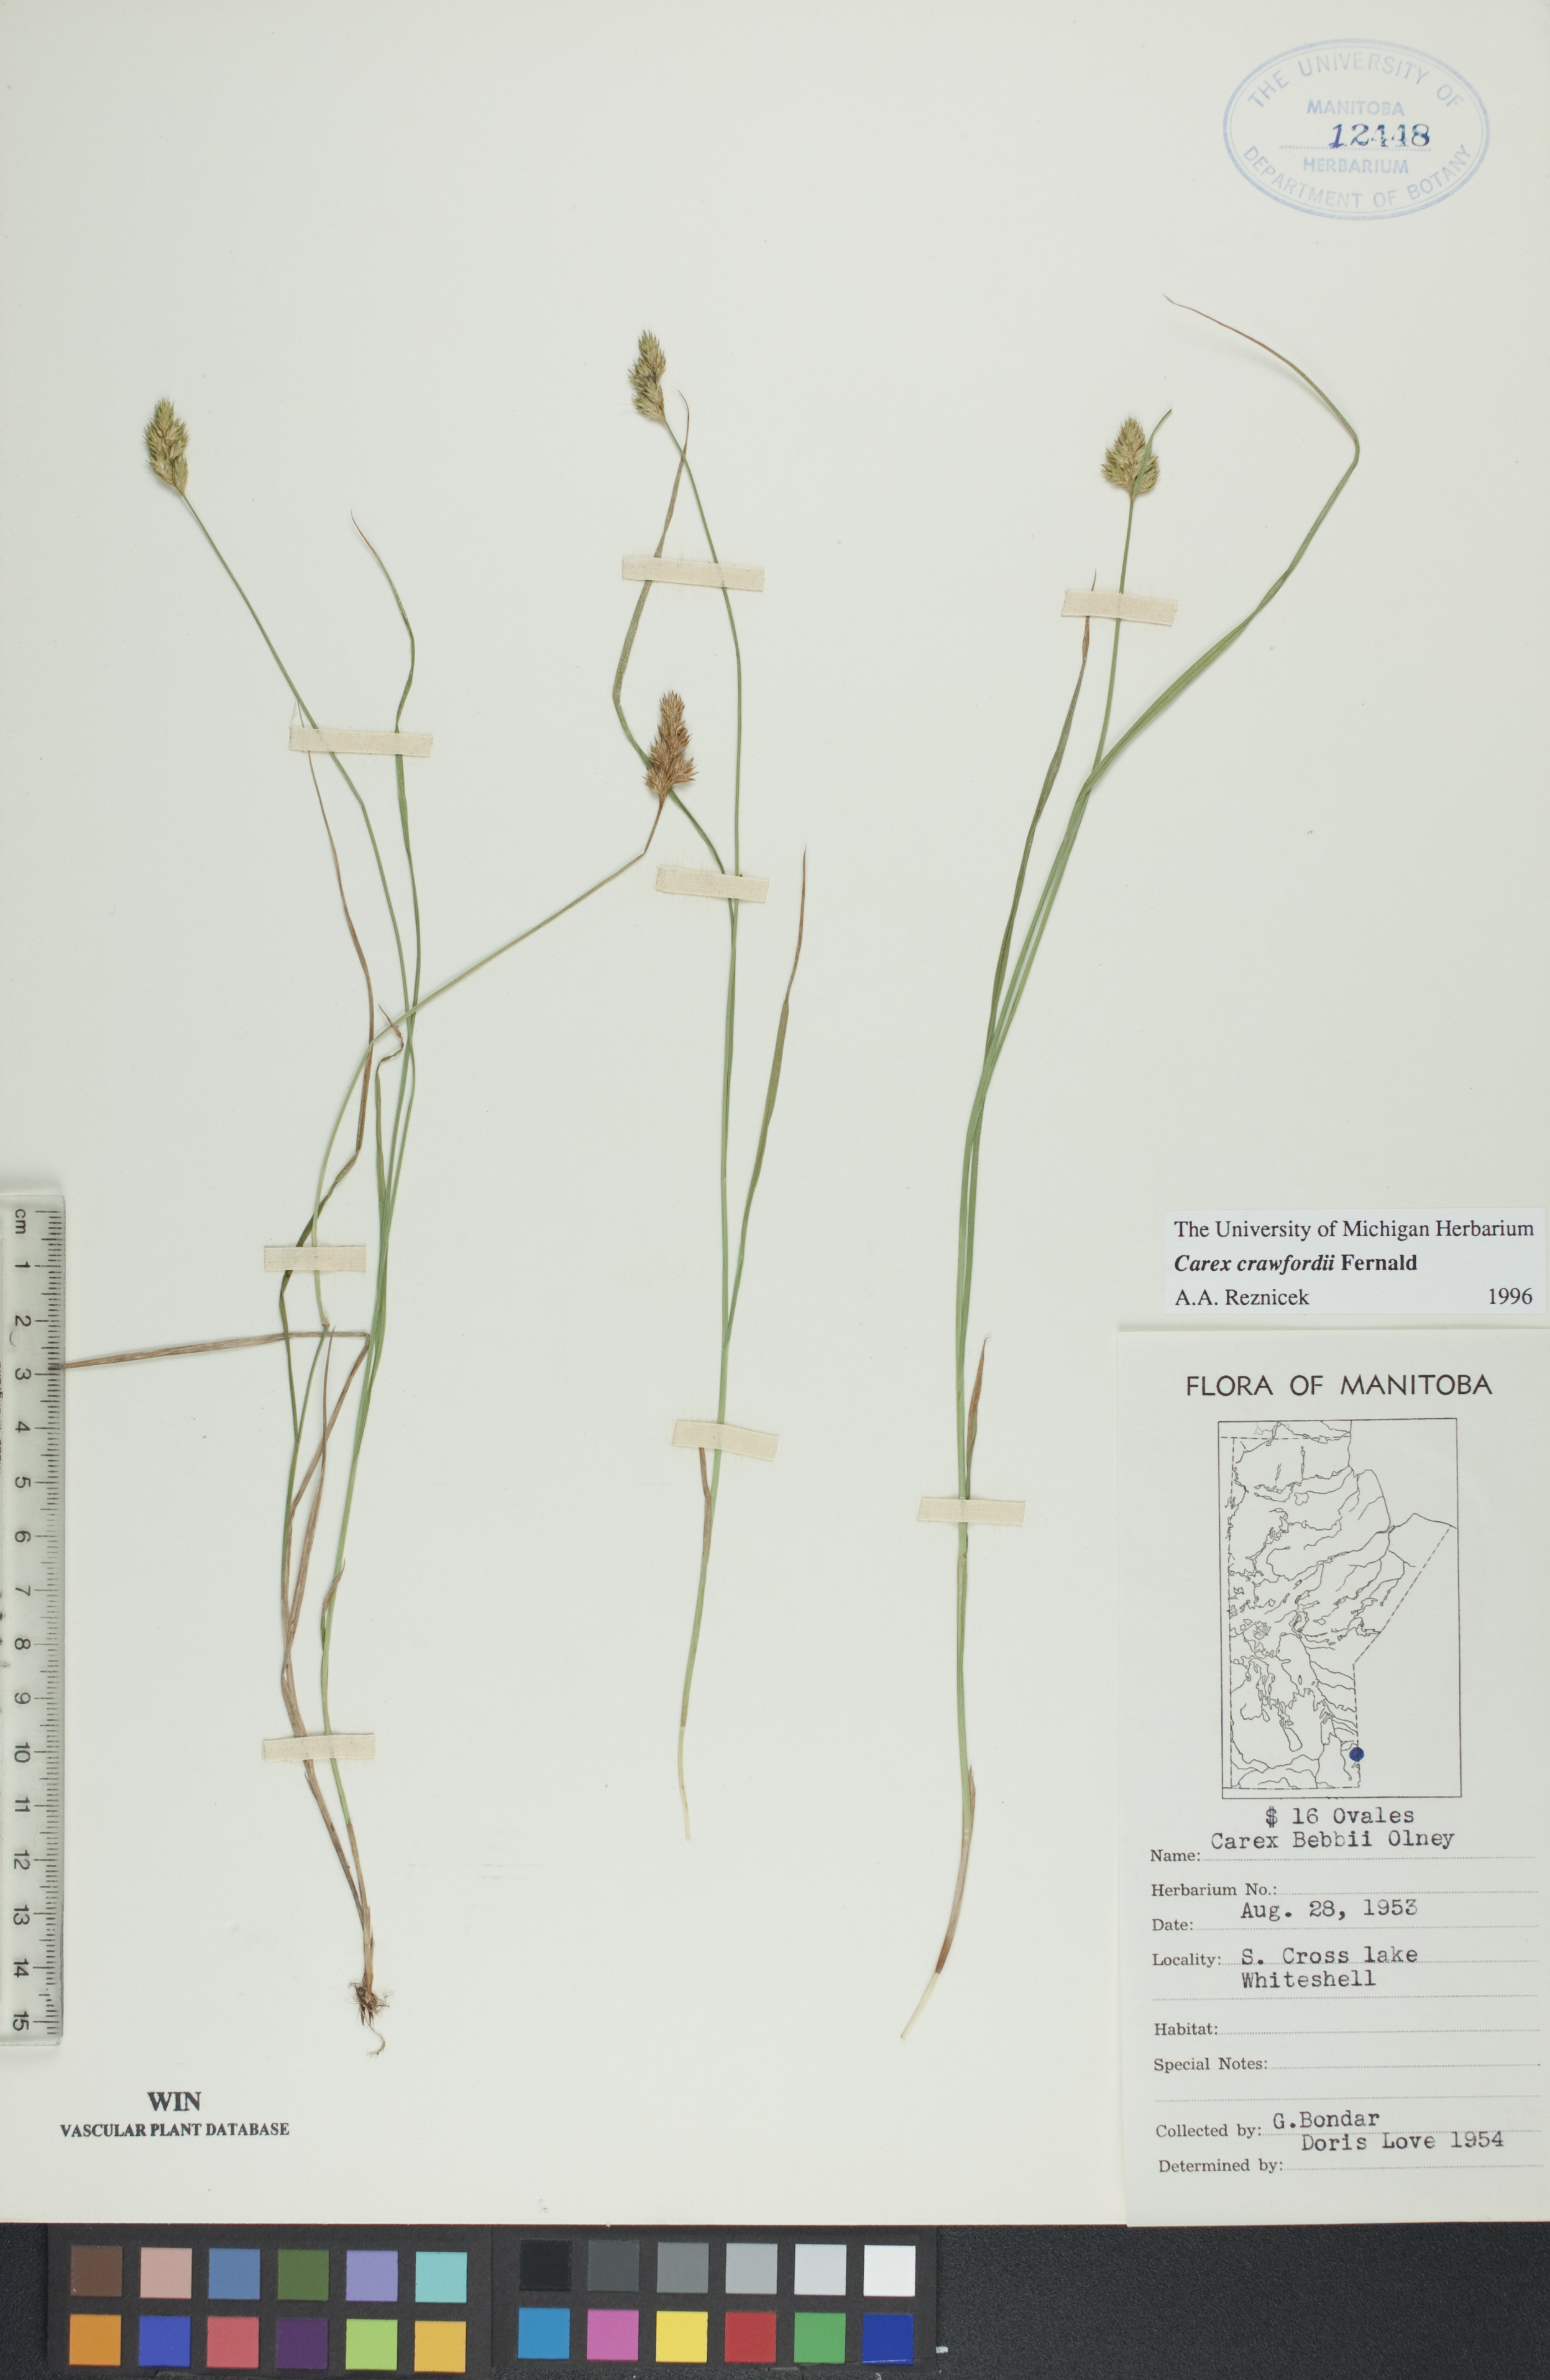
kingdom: Plantae
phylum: Tracheophyta
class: Liliopsida
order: Poales
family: Cyperaceae
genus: Carex
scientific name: Carex crawfordii
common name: Crawford's sedge
